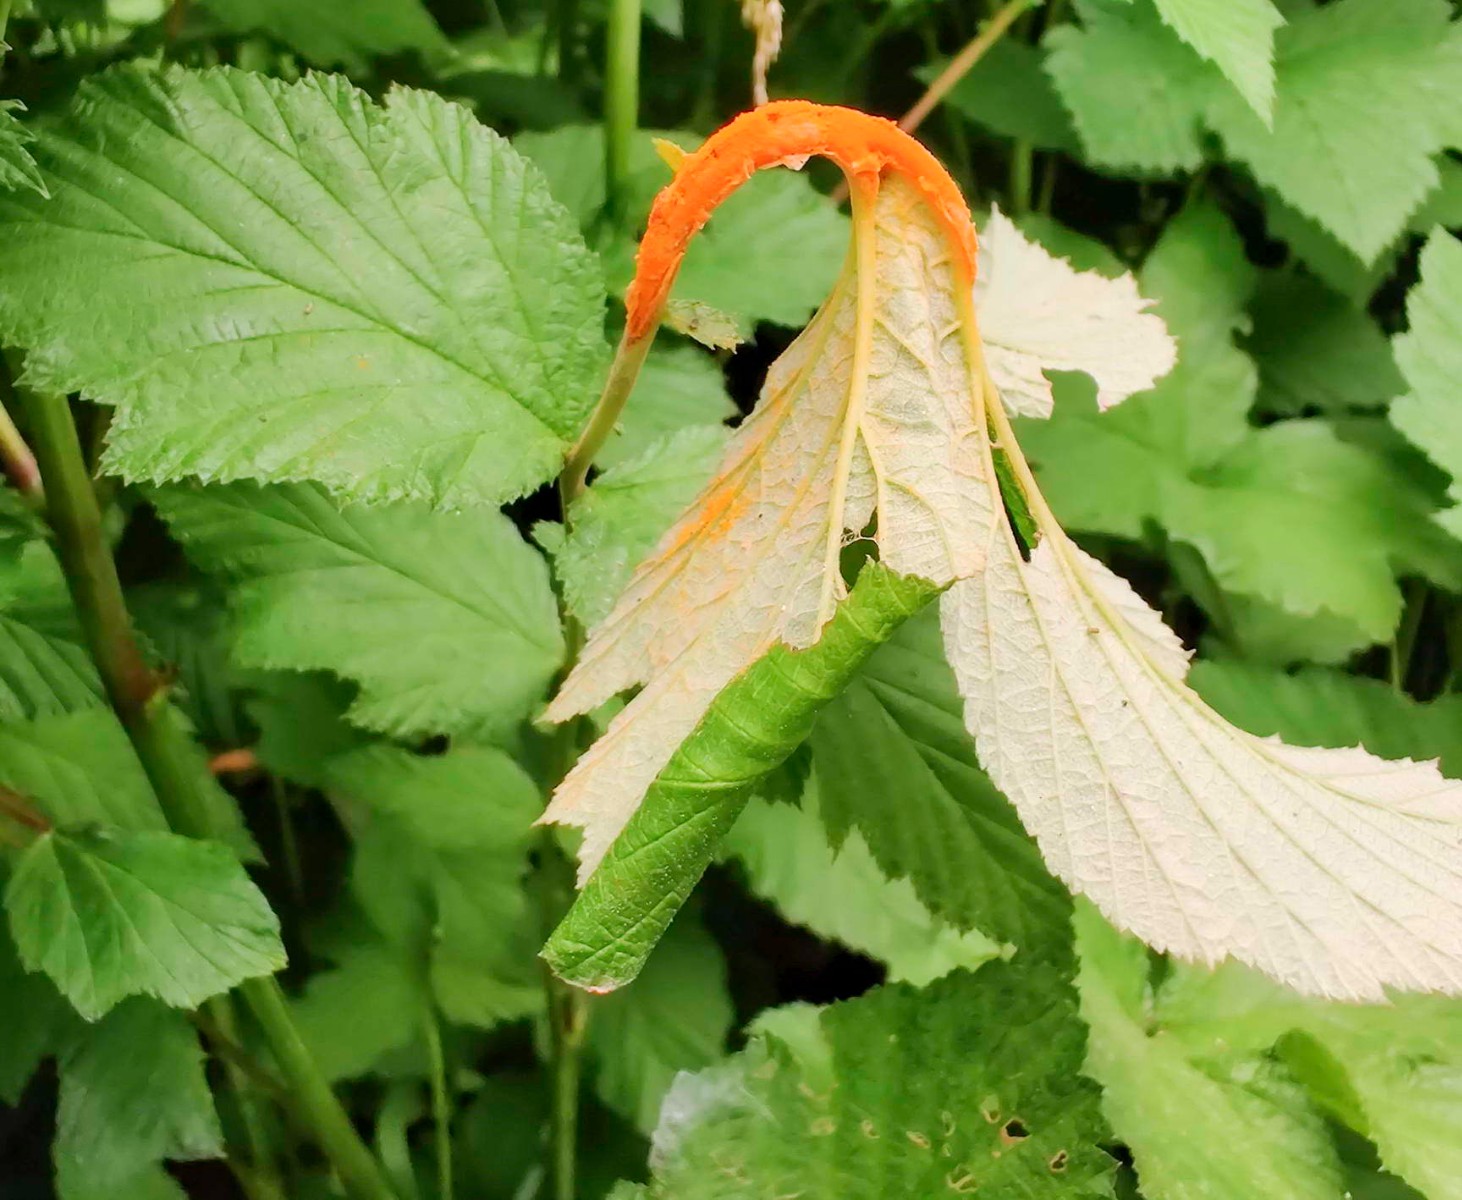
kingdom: Fungi
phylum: Basidiomycota
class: Pucciniomycetes
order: Pucciniales
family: Raveneliaceae
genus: Triphragmium
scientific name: Triphragmium ulmariae
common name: almindelig mjødurtrust
